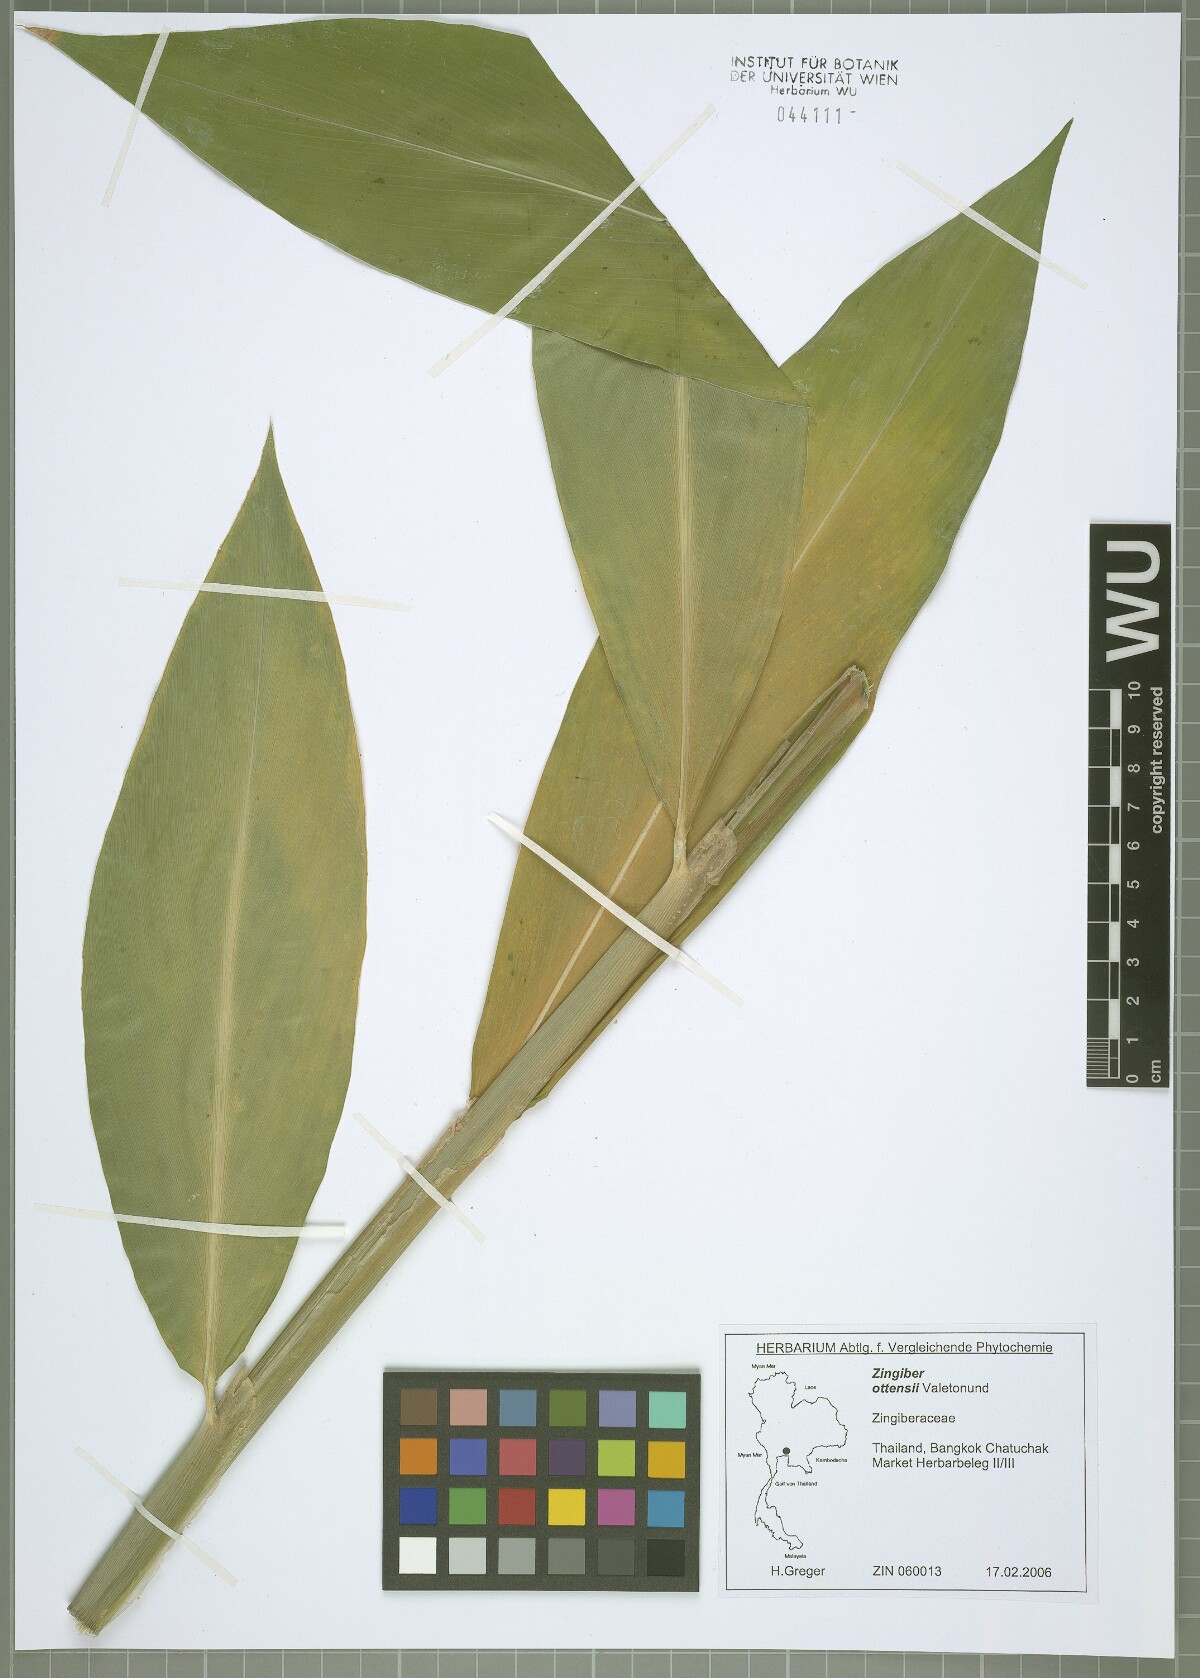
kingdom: Plantae
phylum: Tracheophyta
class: Liliopsida
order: Zingiberales
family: Zingiberaceae
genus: Zingiber
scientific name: Zingiber ottensii
